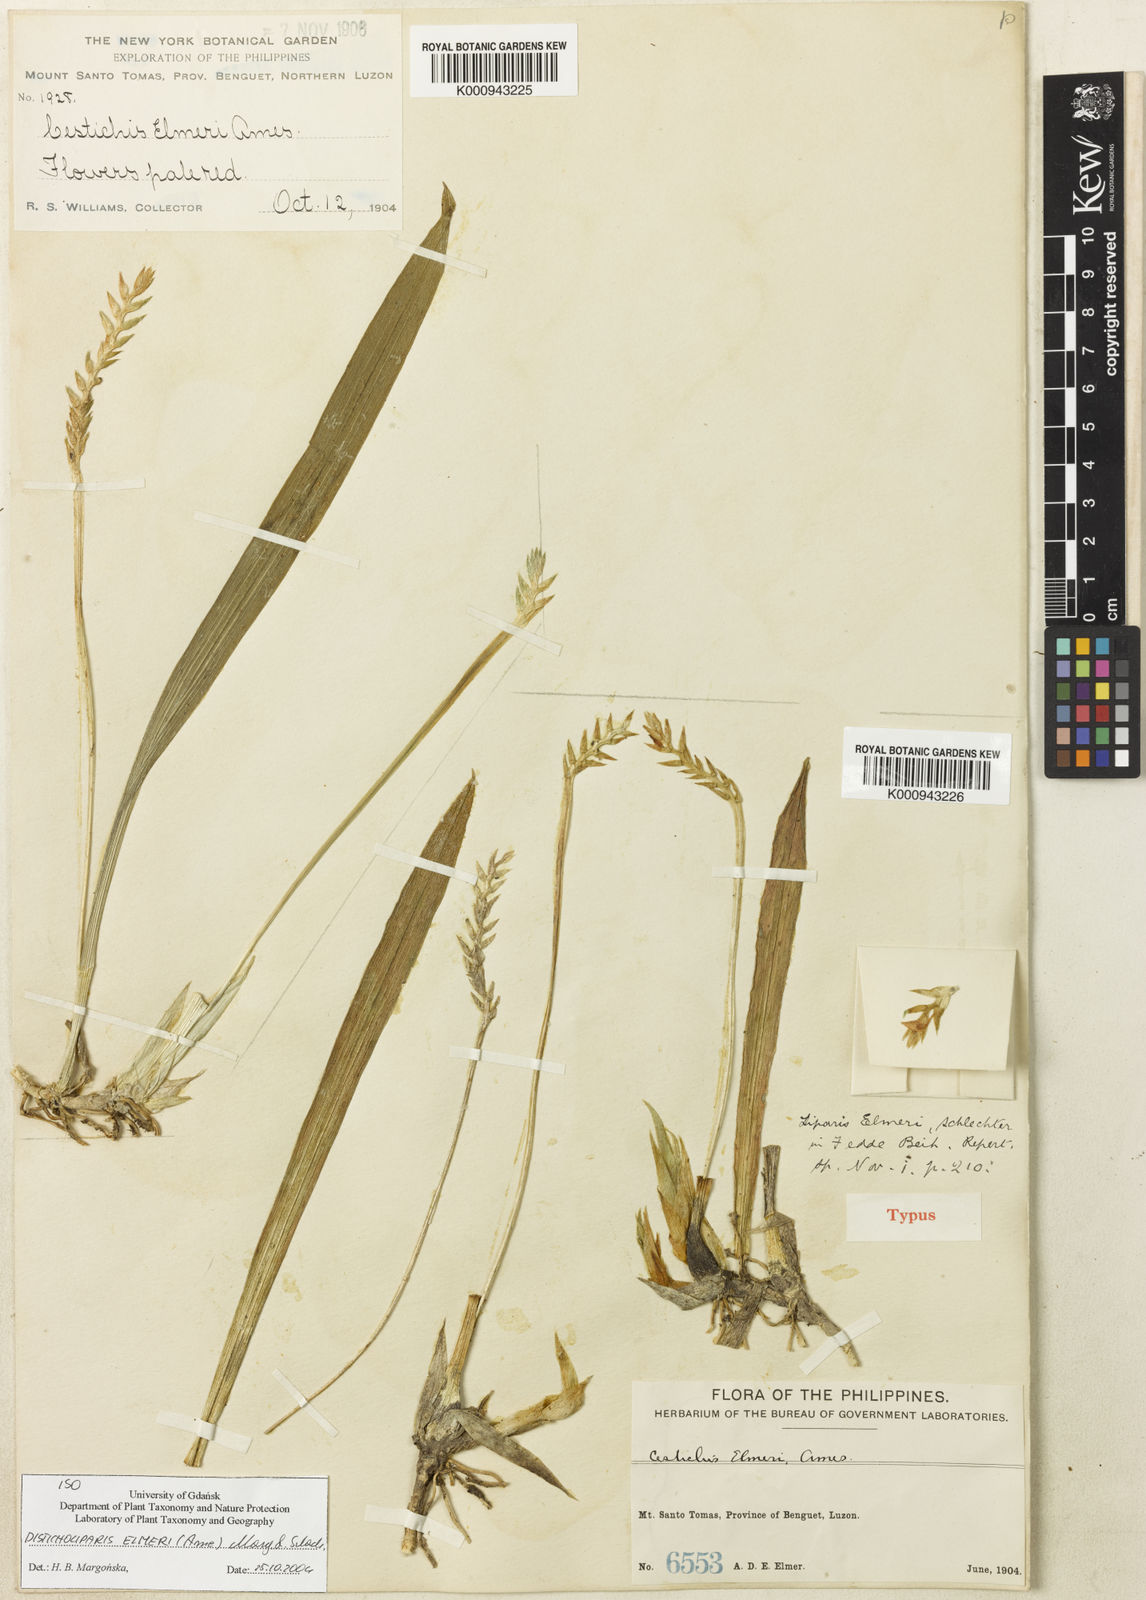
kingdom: Plantae
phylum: Tracheophyta
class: Liliopsida
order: Asparagales
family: Orchidaceae
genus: Liparis
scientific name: Liparis elmeri
